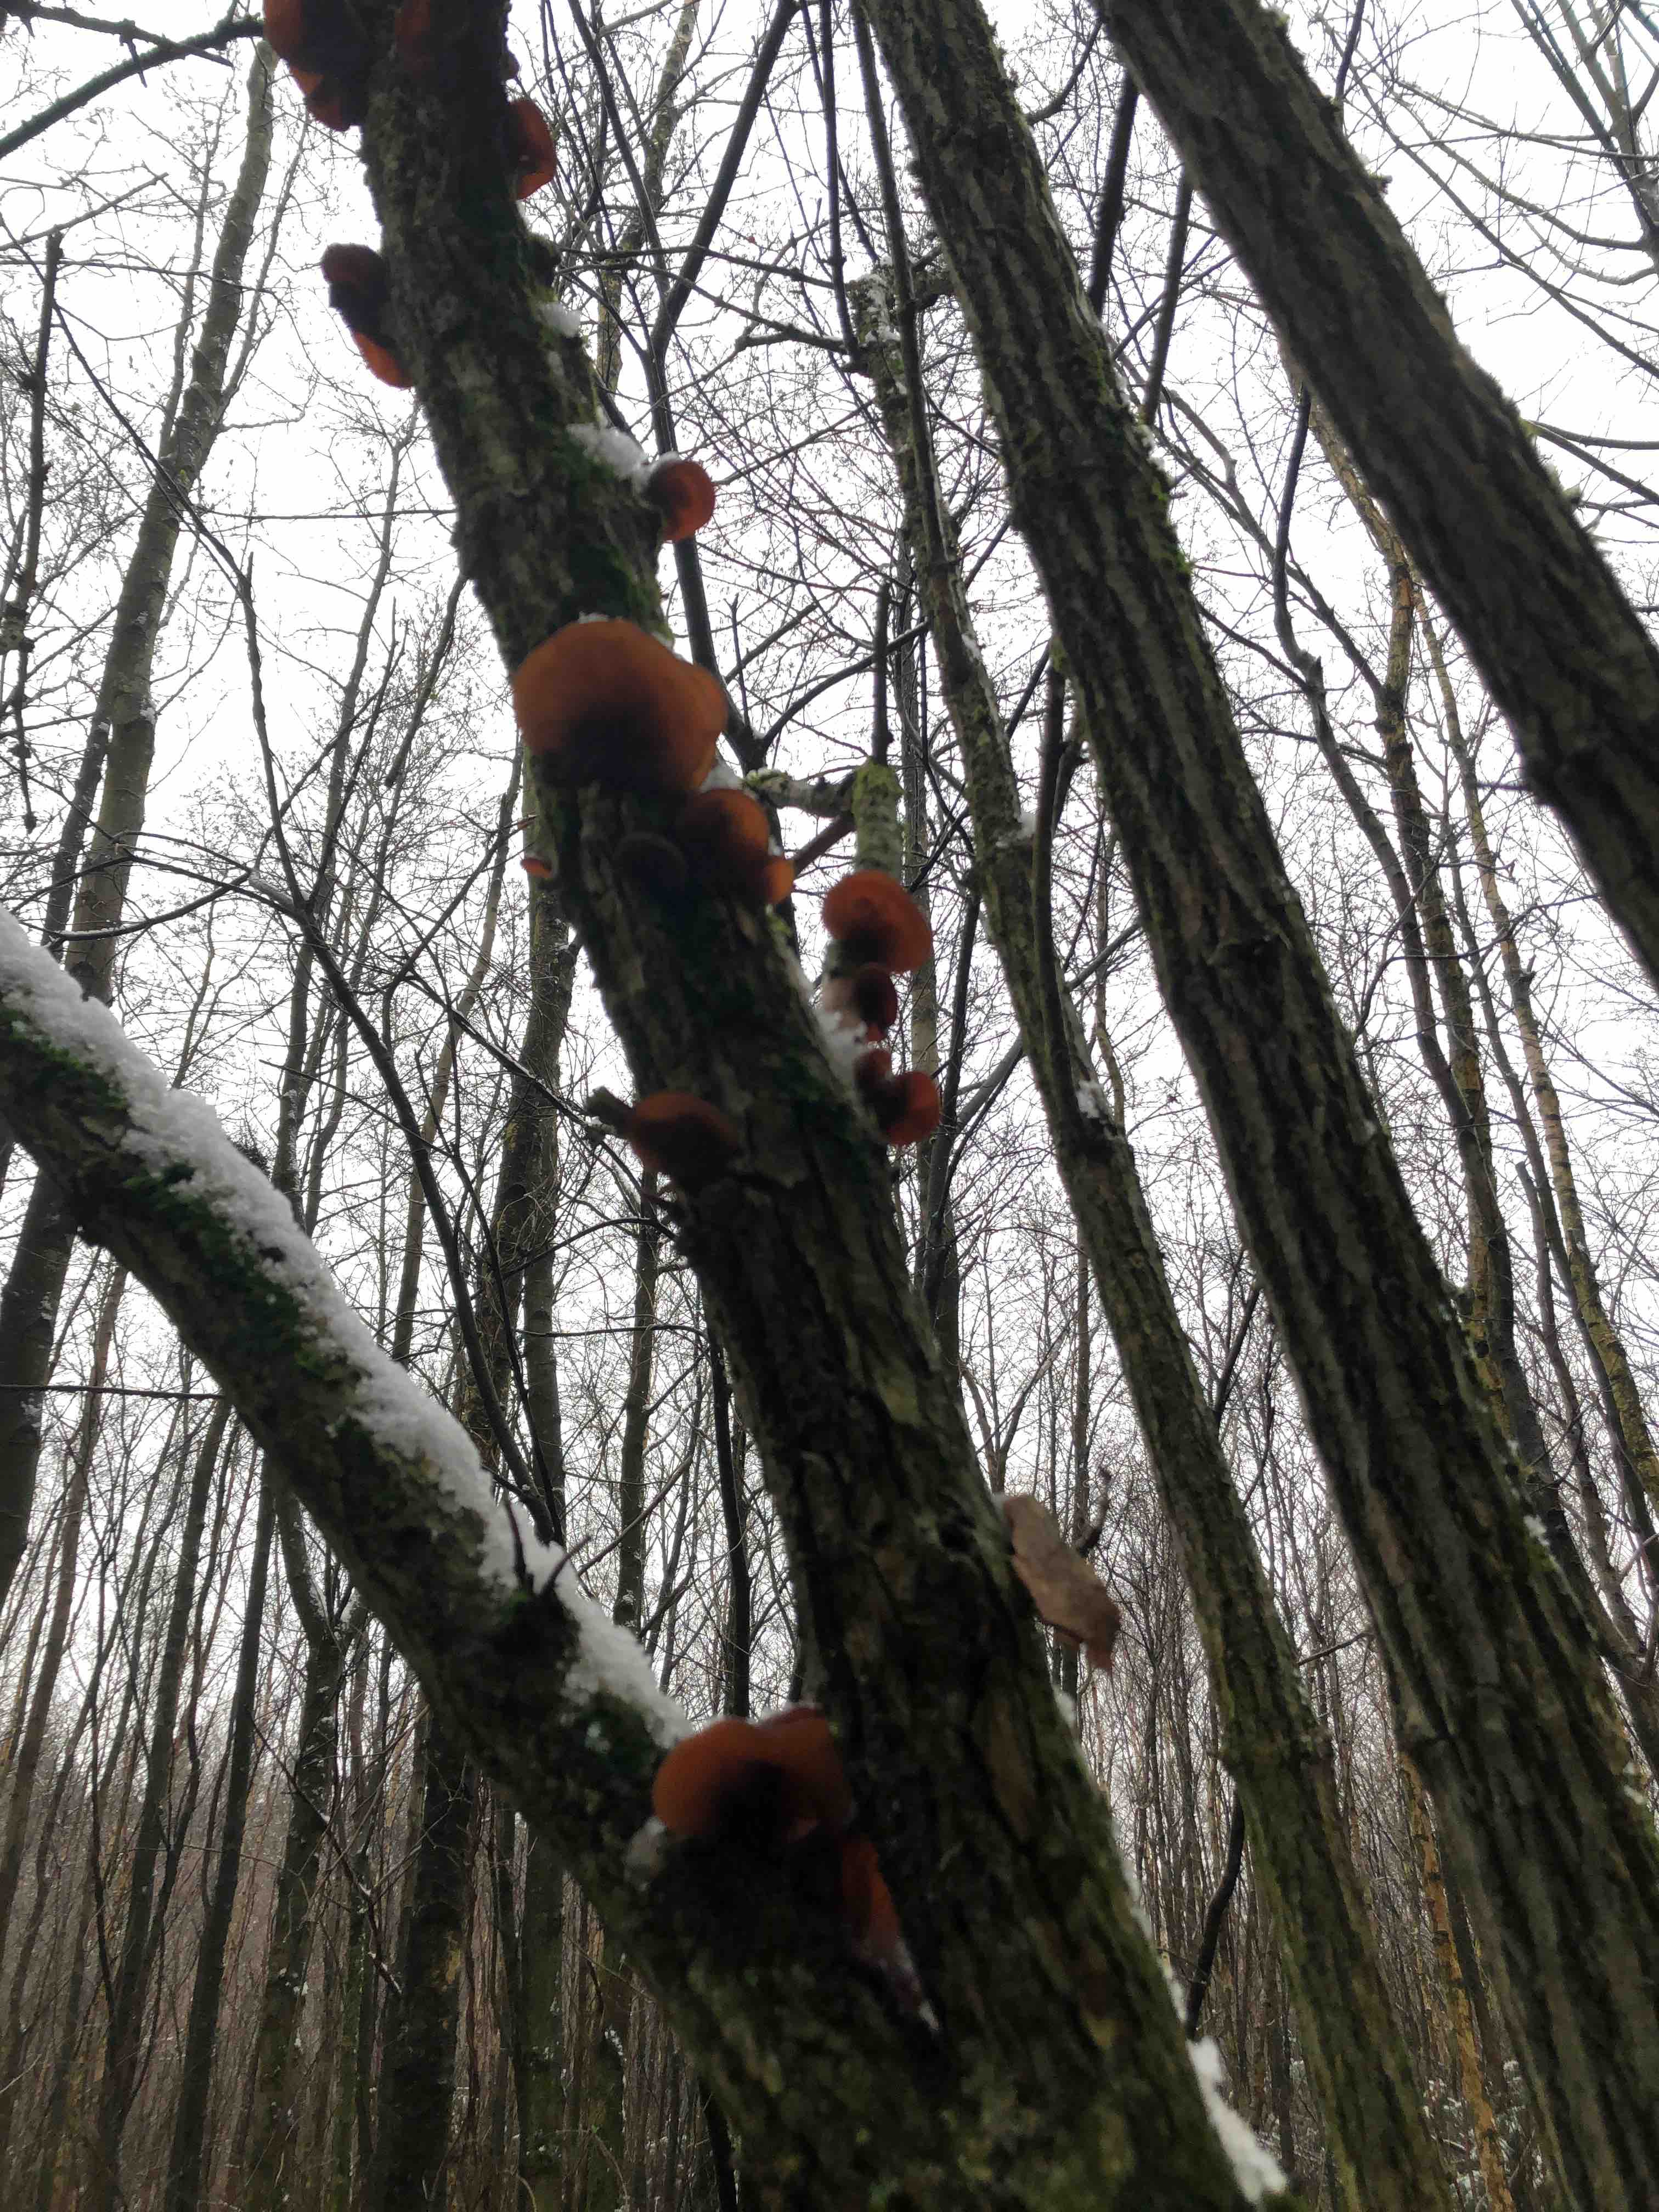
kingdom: Fungi
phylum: Basidiomycota
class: Agaricomycetes
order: Auriculariales
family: Auriculariaceae
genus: Auricularia
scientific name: Auricularia auricula-judae
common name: almindelig judasøre
